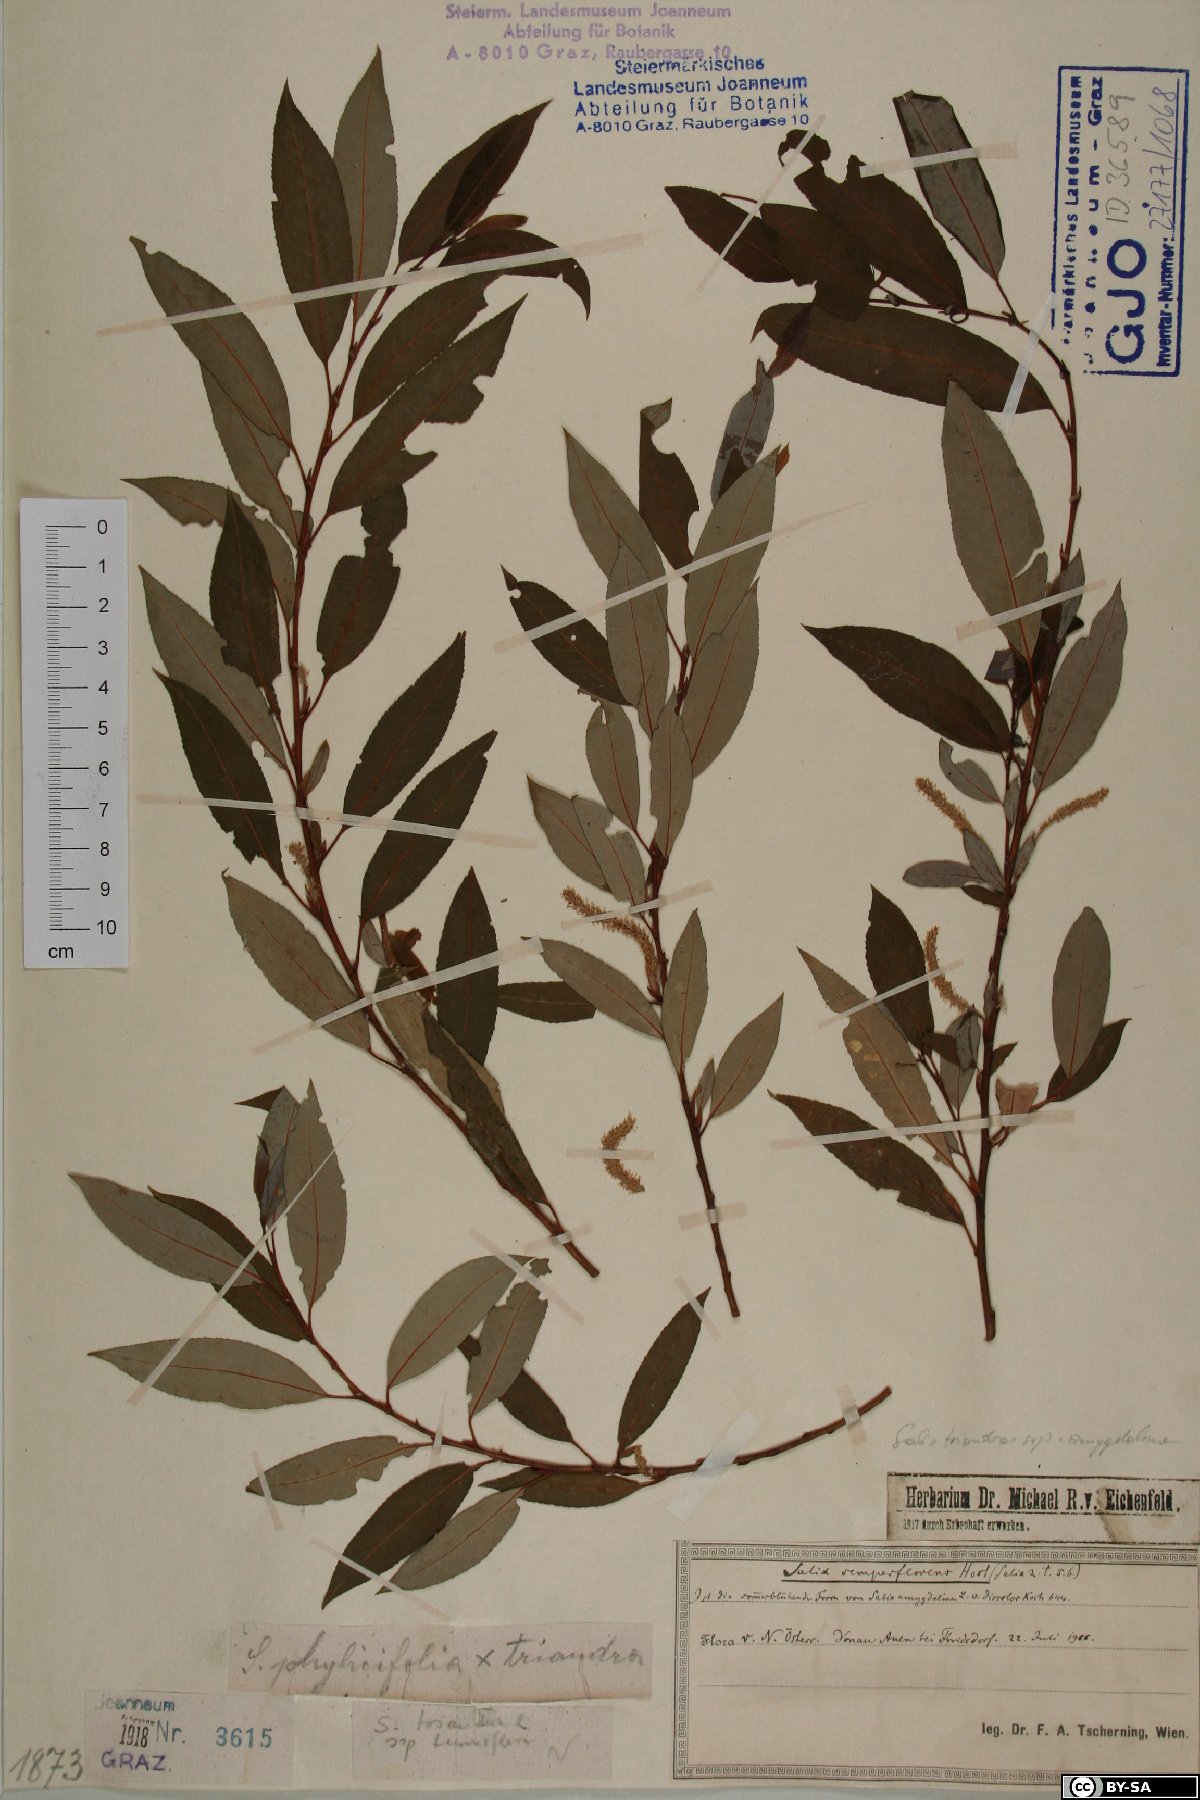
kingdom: Plantae
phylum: Tracheophyta
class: Magnoliopsida
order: Malpighiales
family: Salicaceae
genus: Salix
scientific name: Salix triandra
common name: Almond willow
